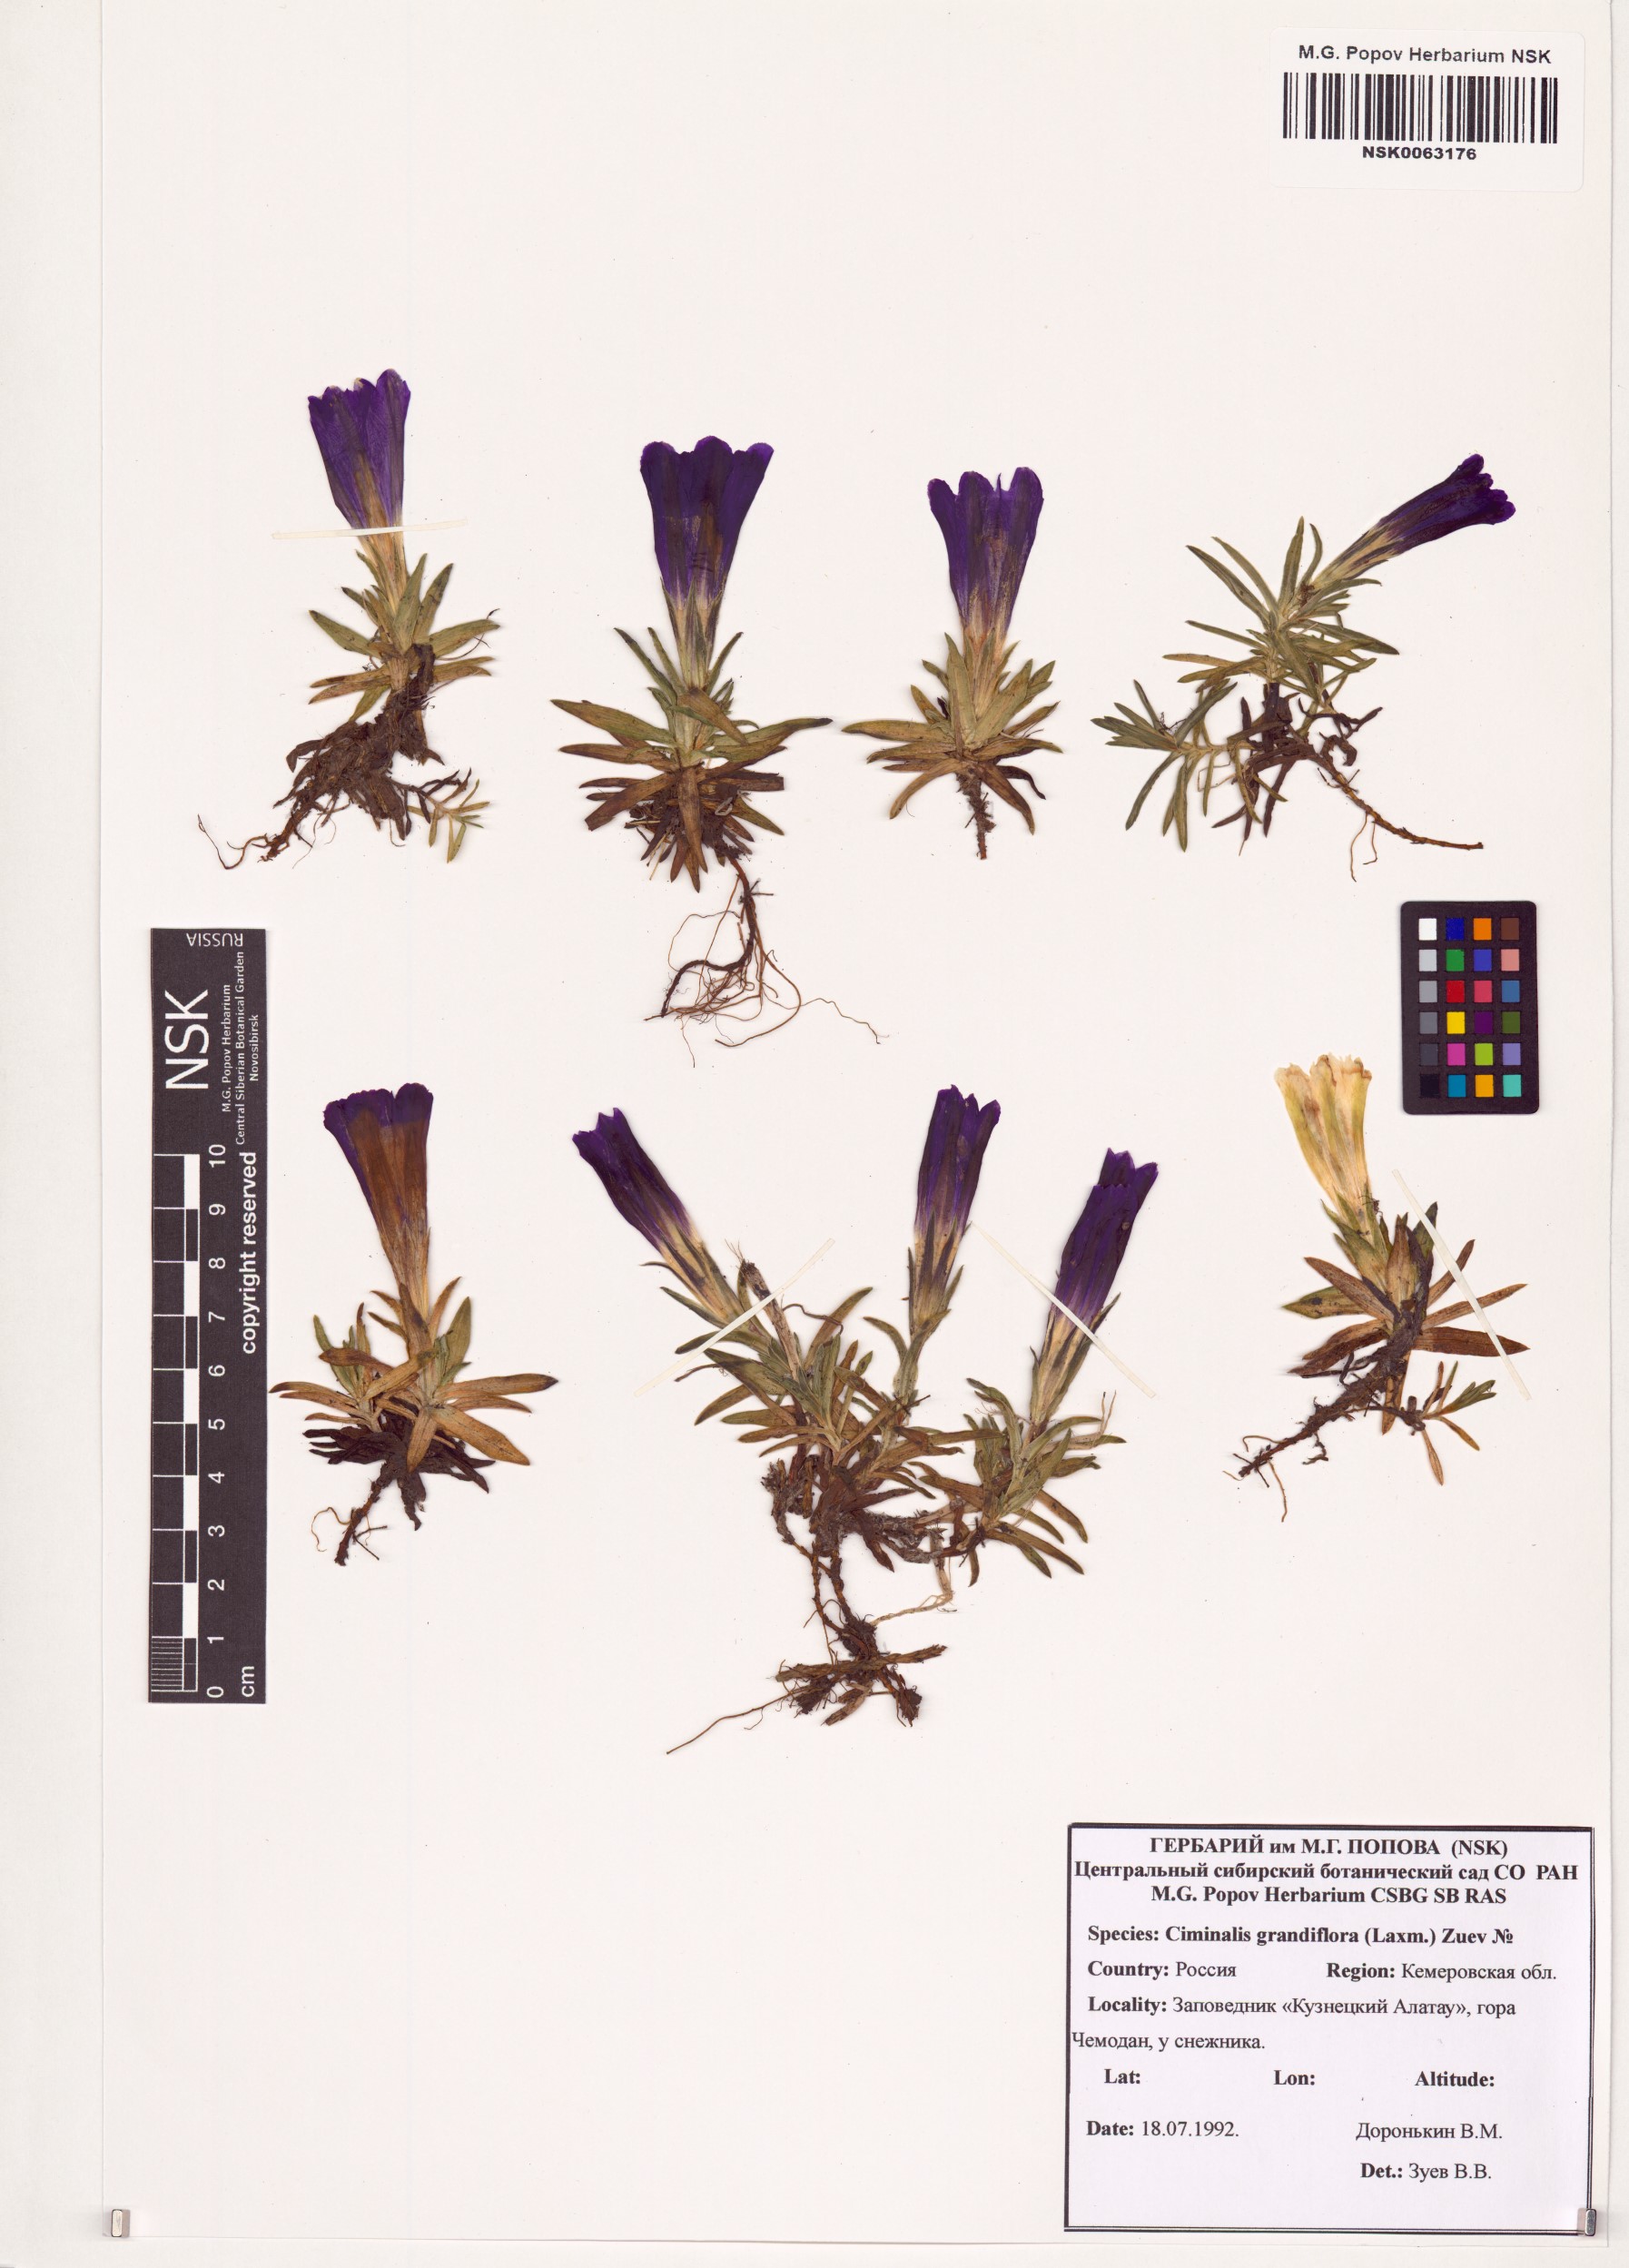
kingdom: Plantae
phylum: Tracheophyta
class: Magnoliopsida
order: Gentianales
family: Gentianaceae
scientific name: Gentianaceae
